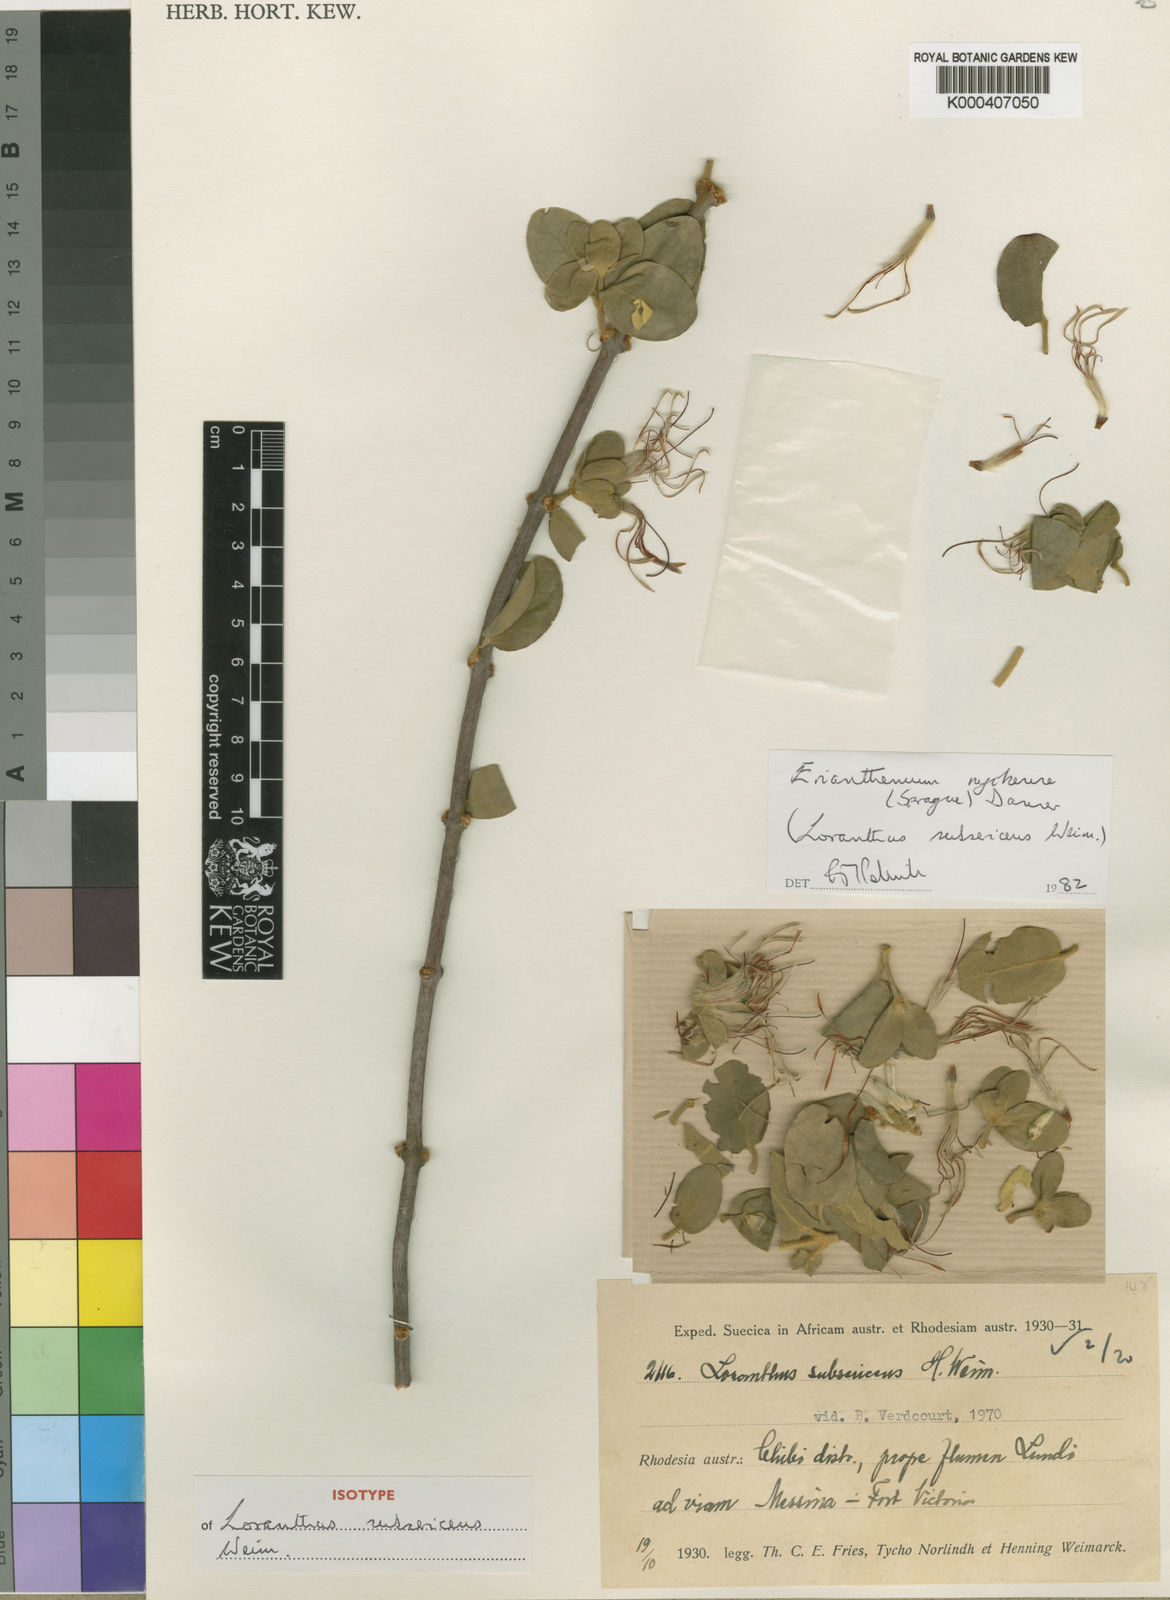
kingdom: Plantae
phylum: Tracheophyta
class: Magnoliopsida
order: Santalales
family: Loranthaceae
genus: Erianthemum
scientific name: Erianthemum nyikense
